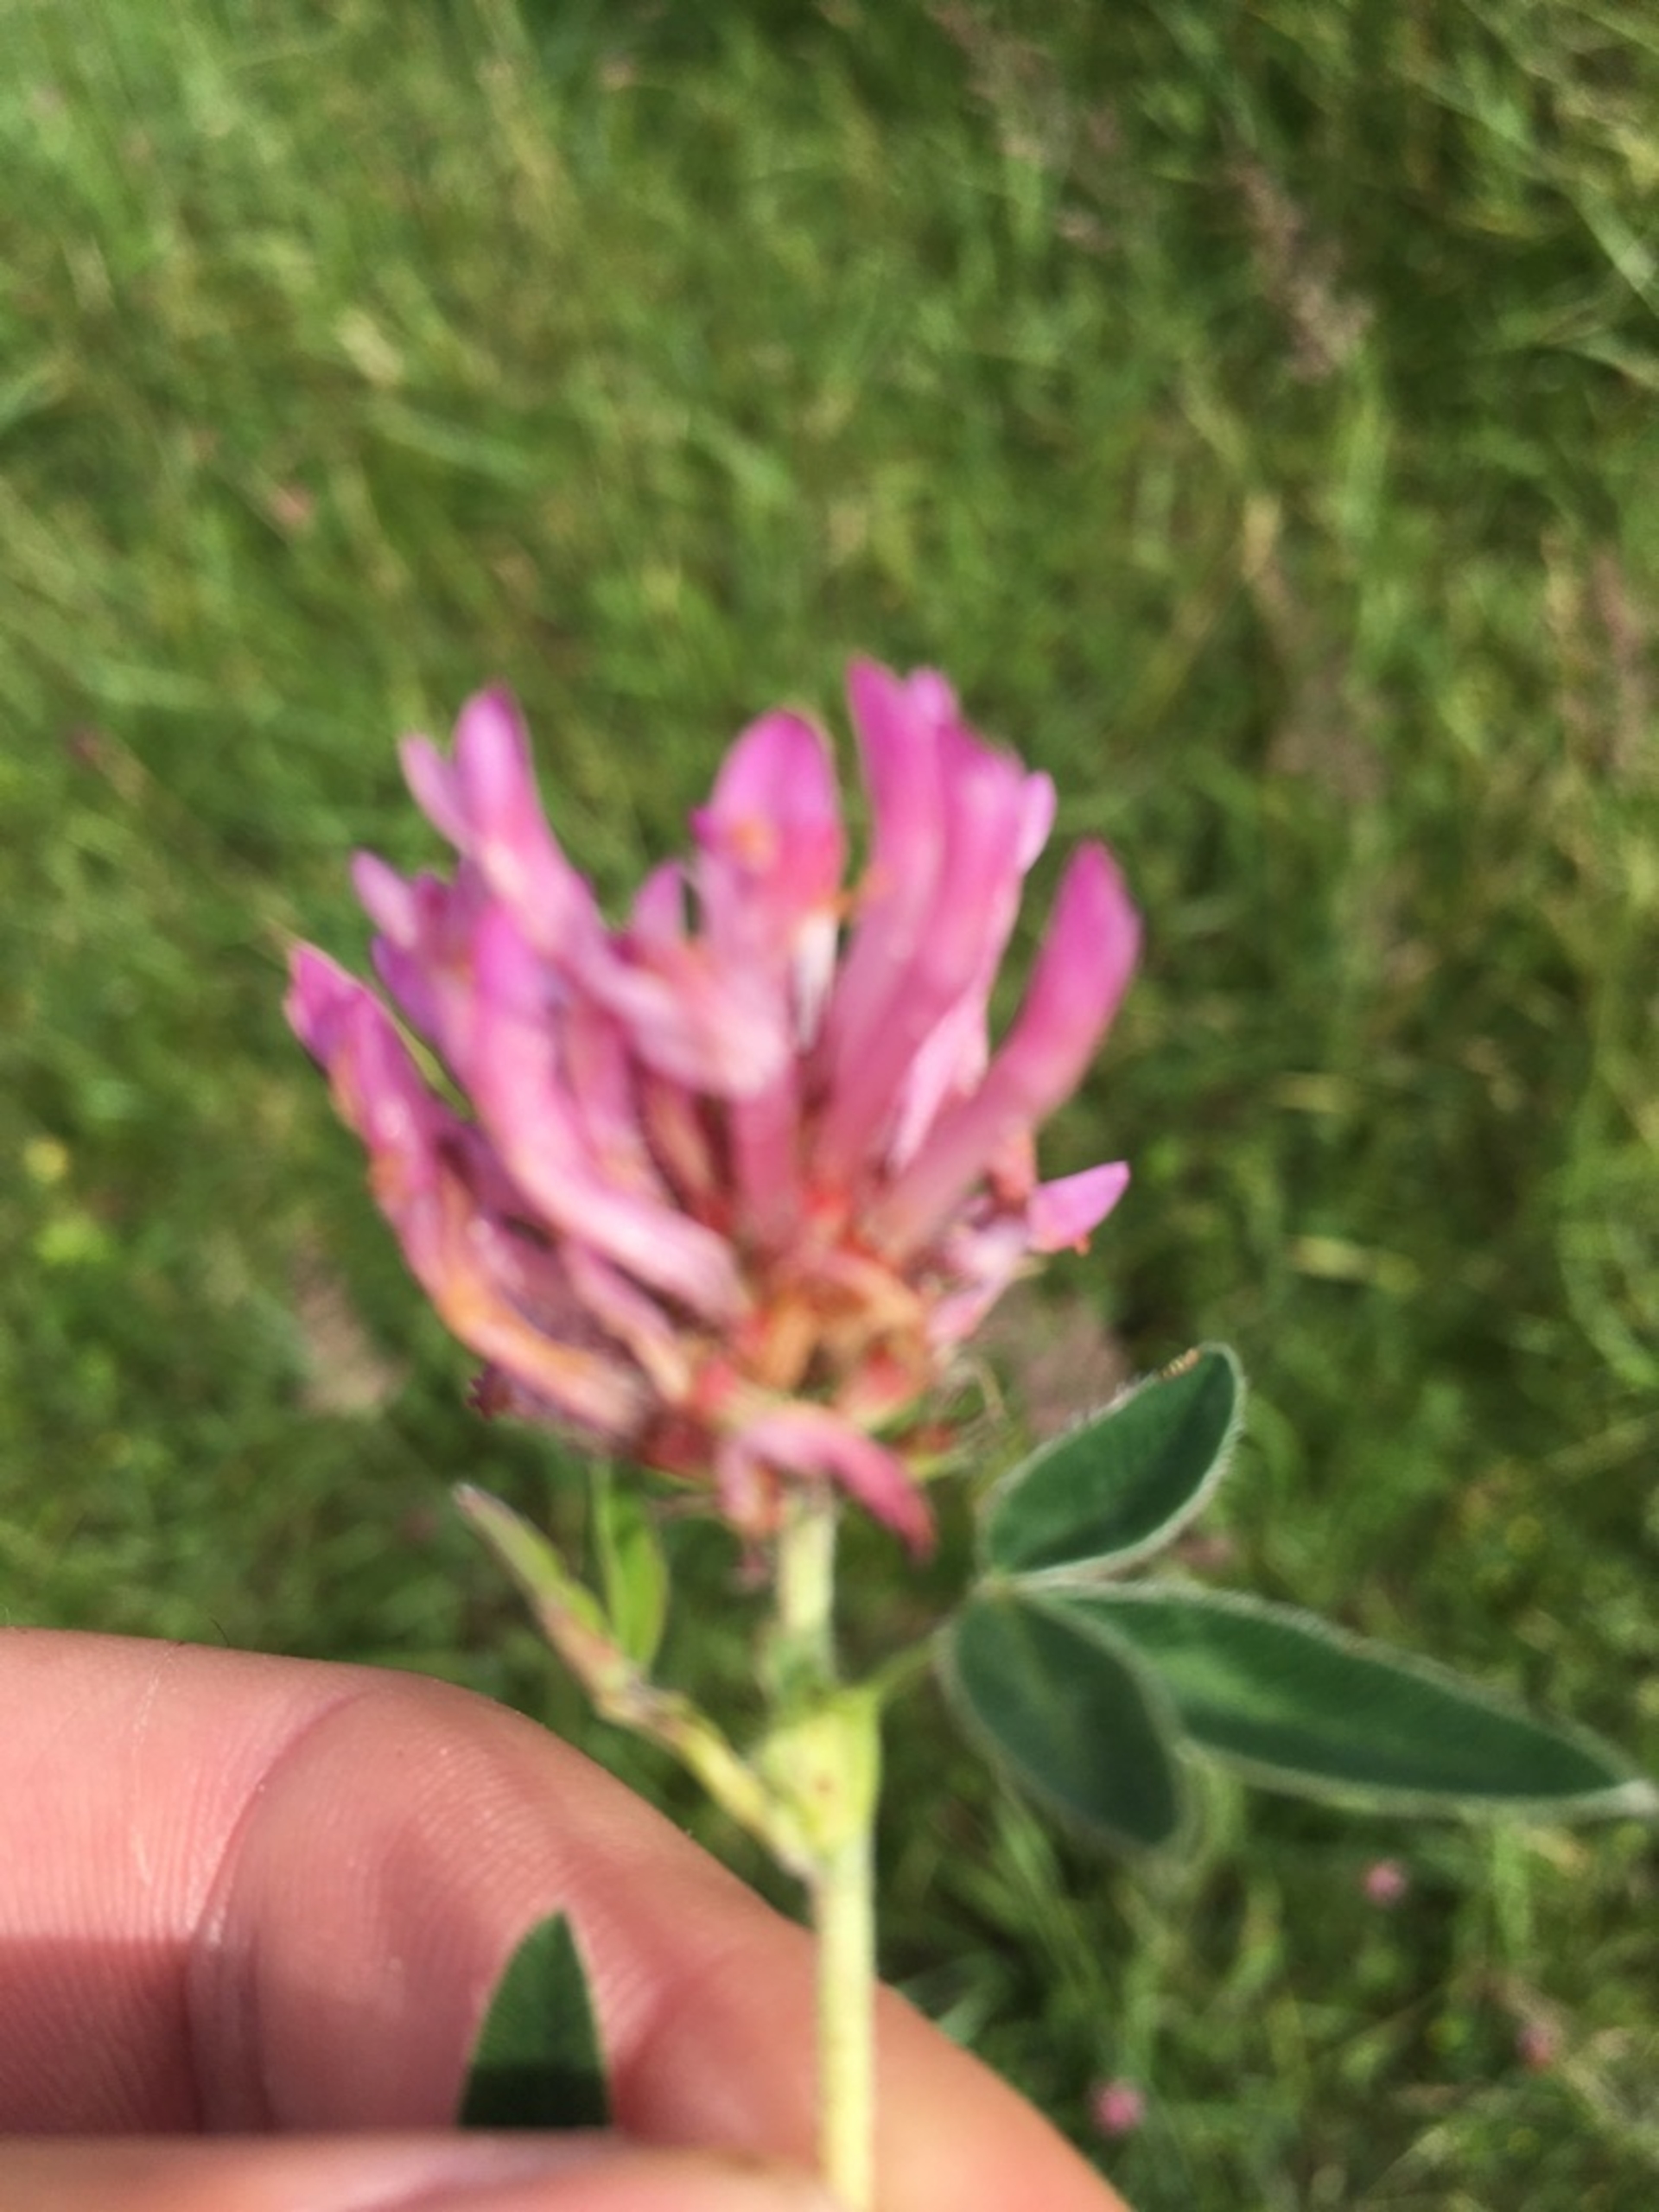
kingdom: Plantae
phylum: Tracheophyta
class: Magnoliopsida
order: Fabales
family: Fabaceae
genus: Trifolium
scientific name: Trifolium medium
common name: Bugtet kløver
